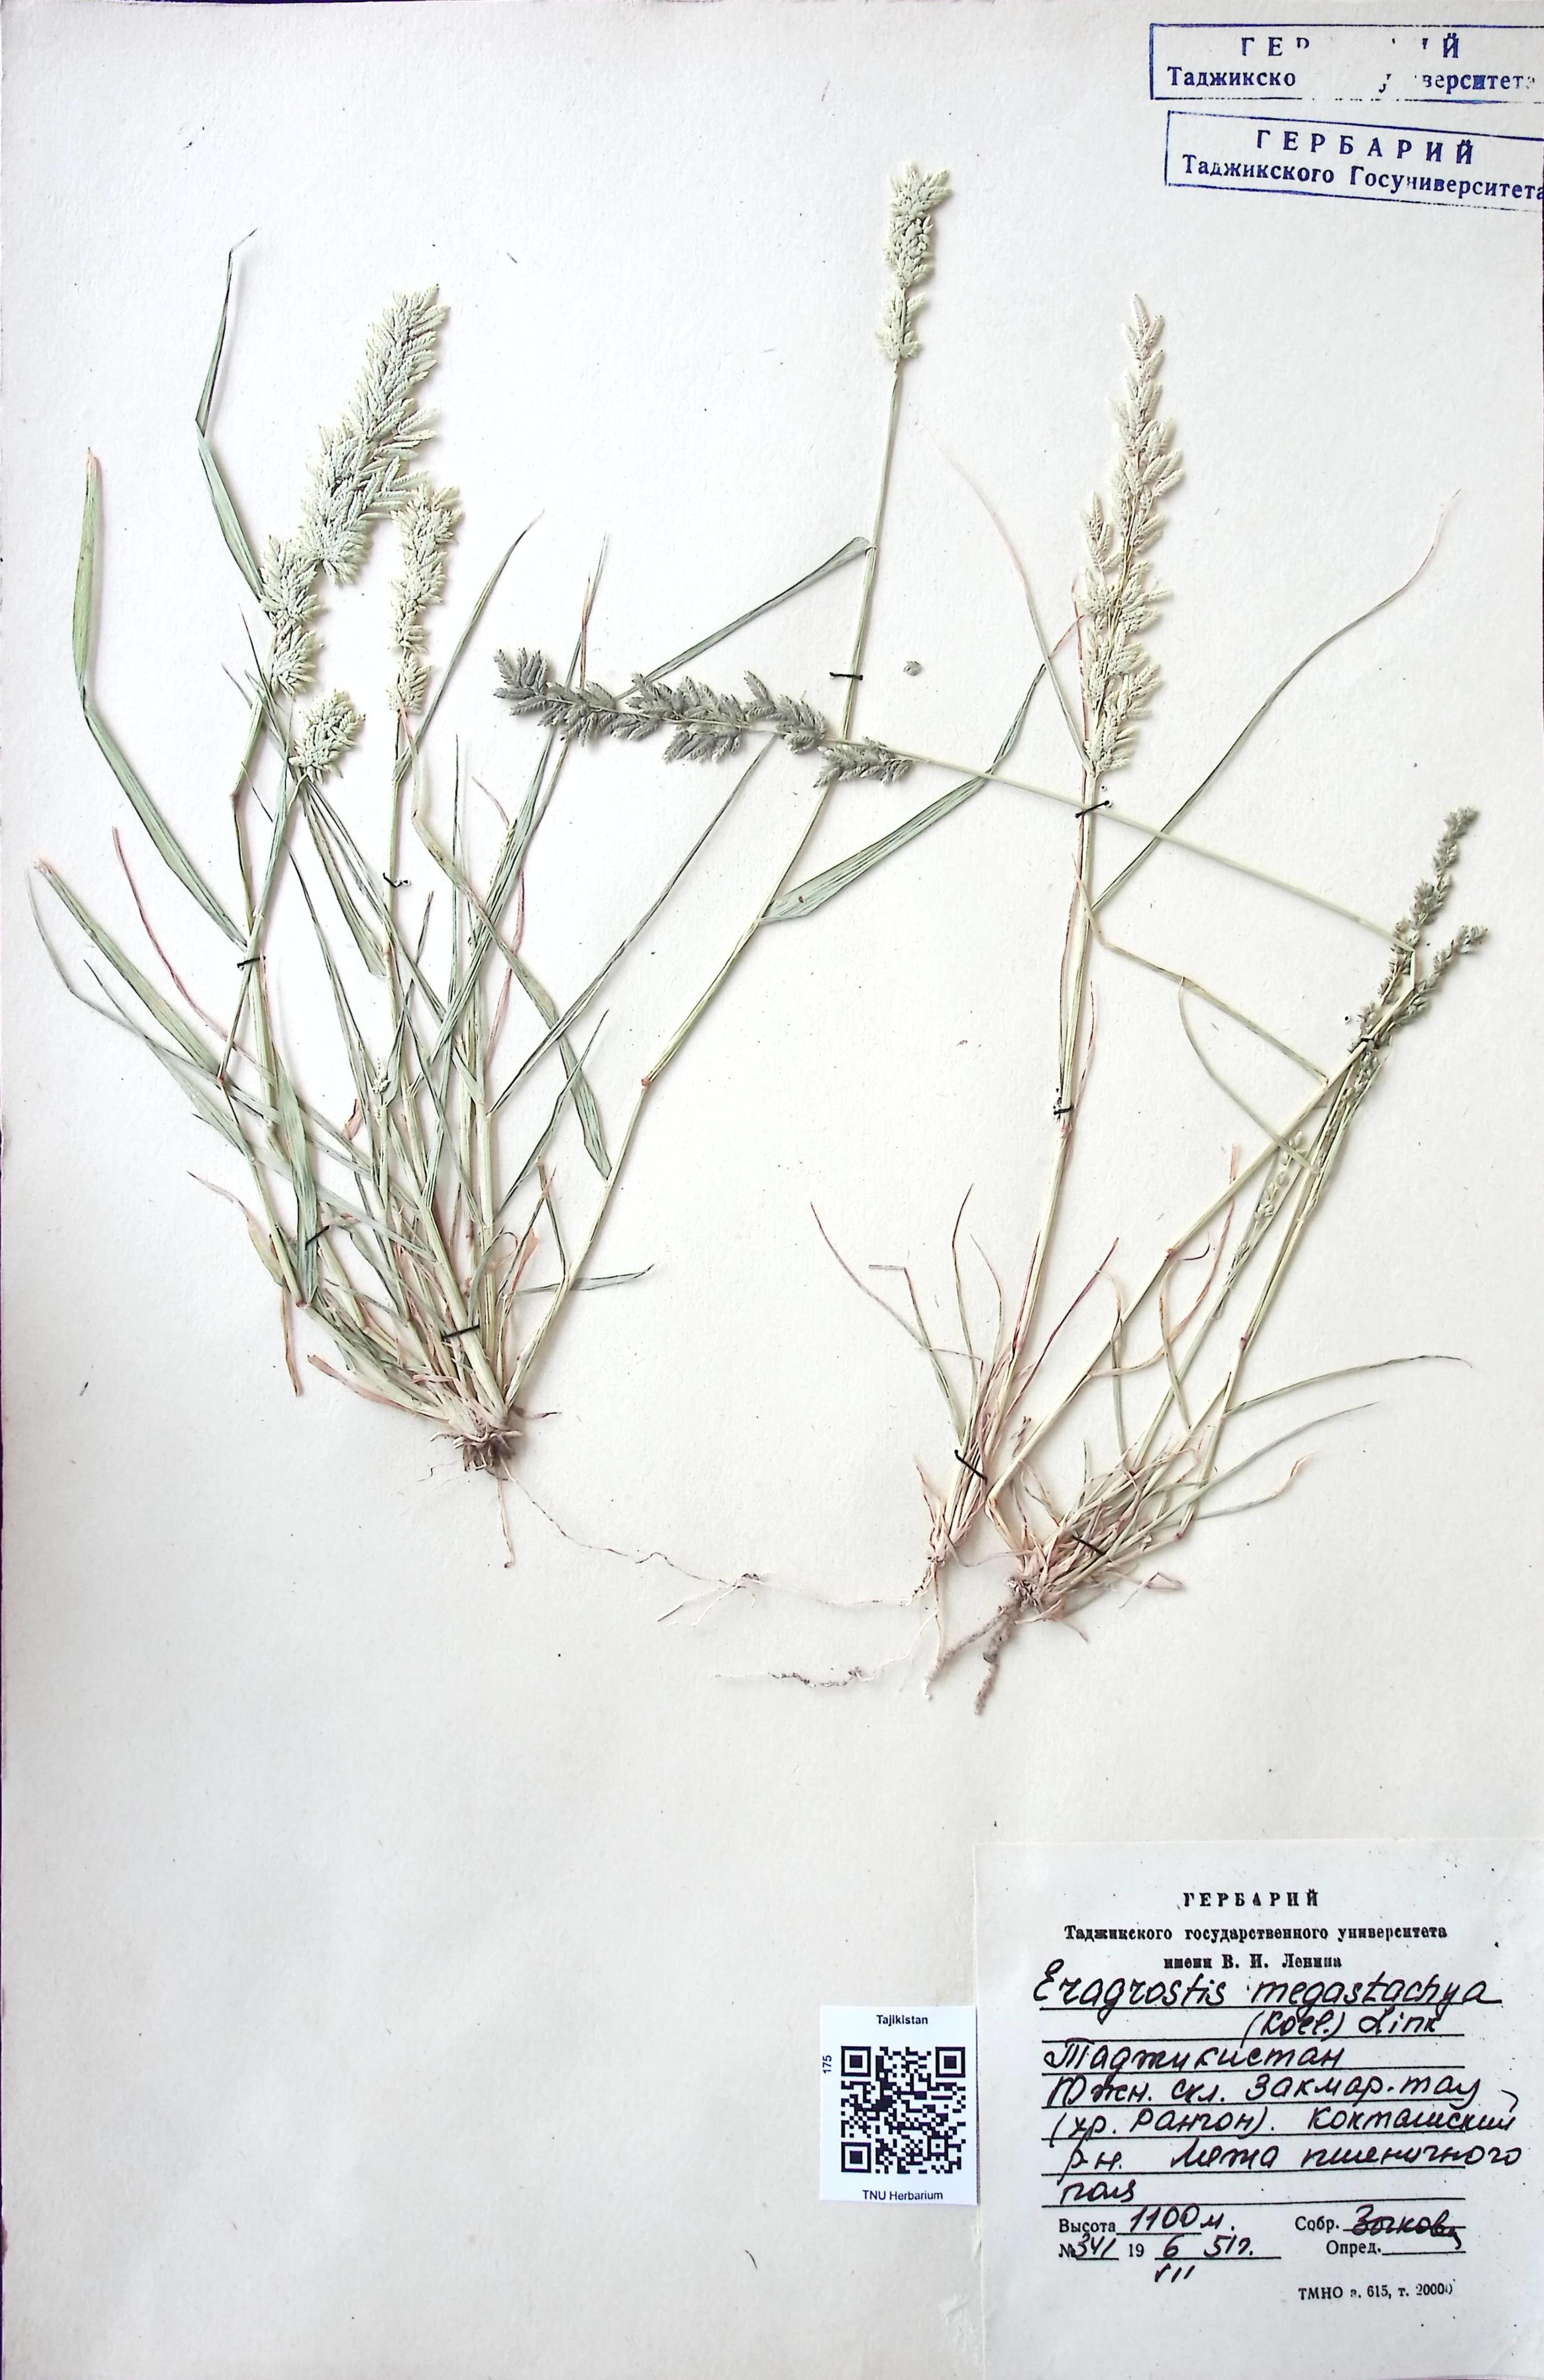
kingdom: Plantae
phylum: Tracheophyta
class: Liliopsida
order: Poales
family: Poaceae
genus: Eragrostis
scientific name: Eragrostis cilianensis
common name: Stinkgrass
